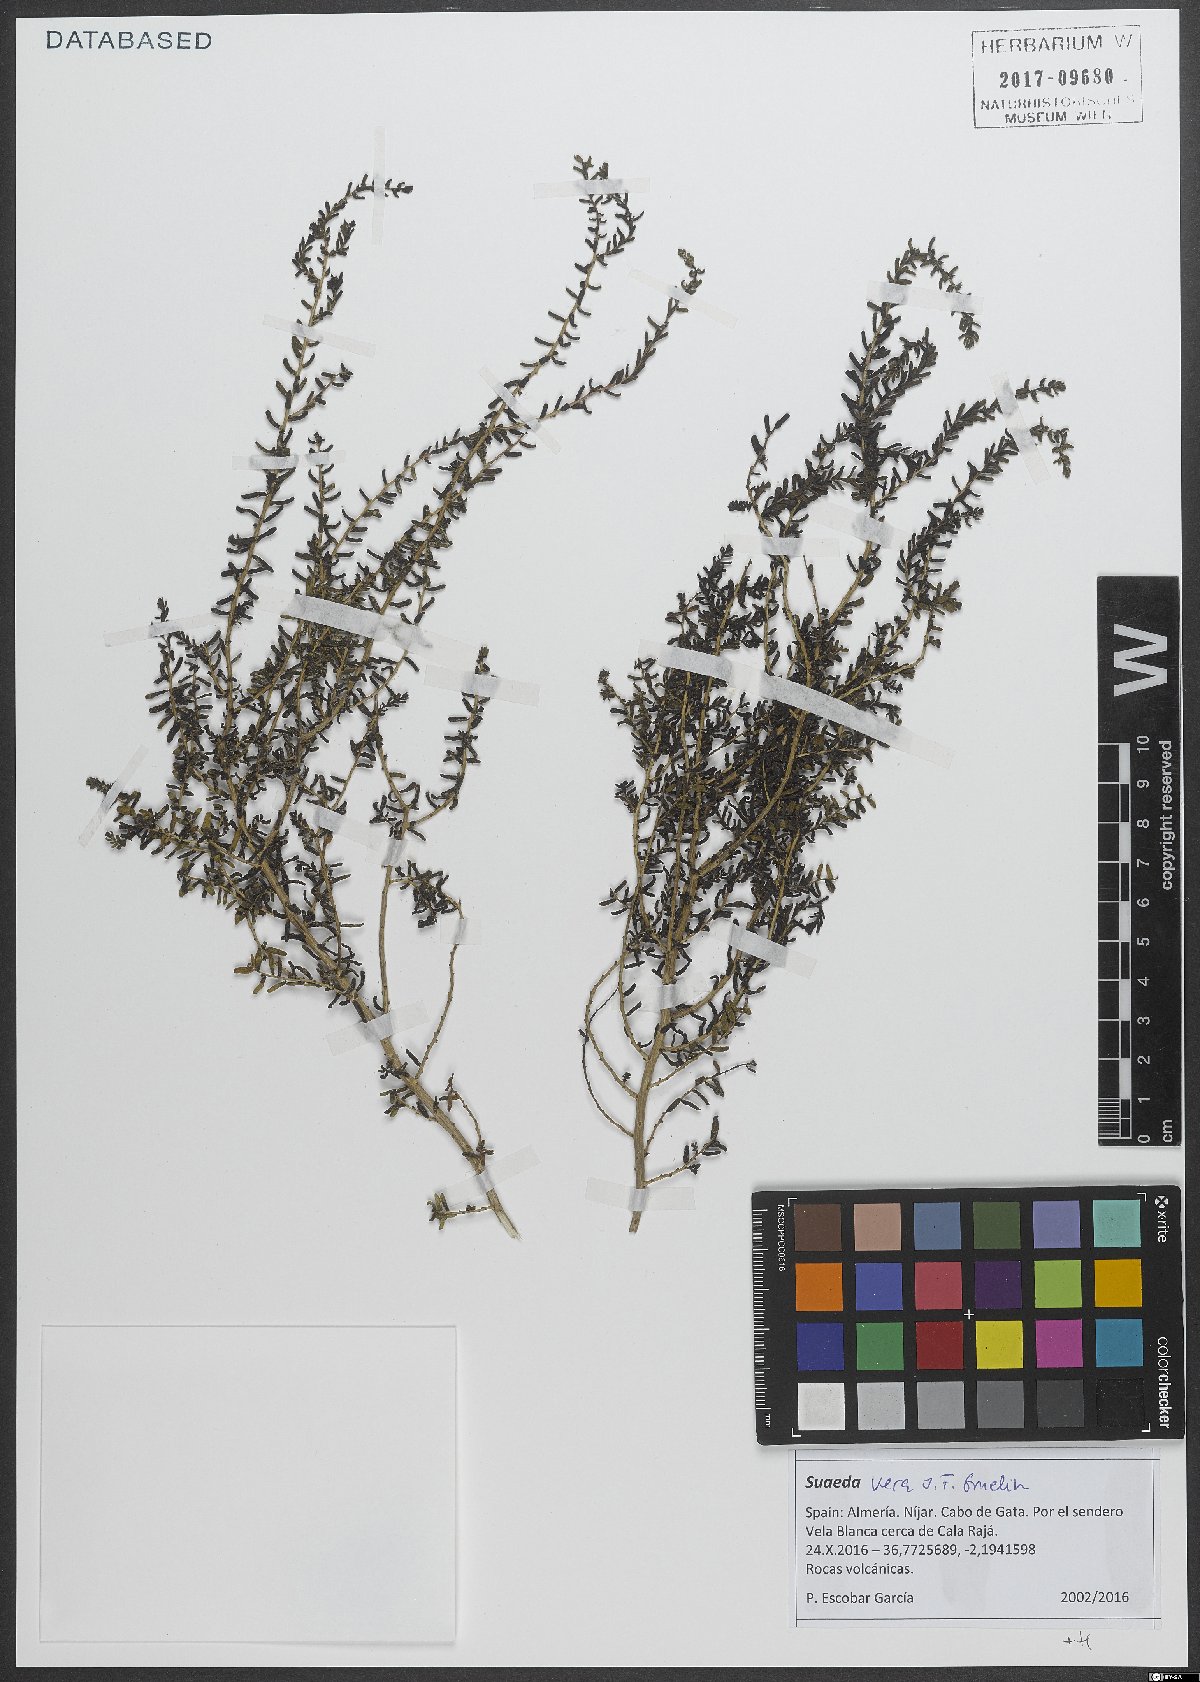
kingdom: Plantae
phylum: Tracheophyta
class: Magnoliopsida
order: Caryophyllales
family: Amaranthaceae
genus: Suaeda
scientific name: Suaeda vera
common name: Shrubby sea-blite
